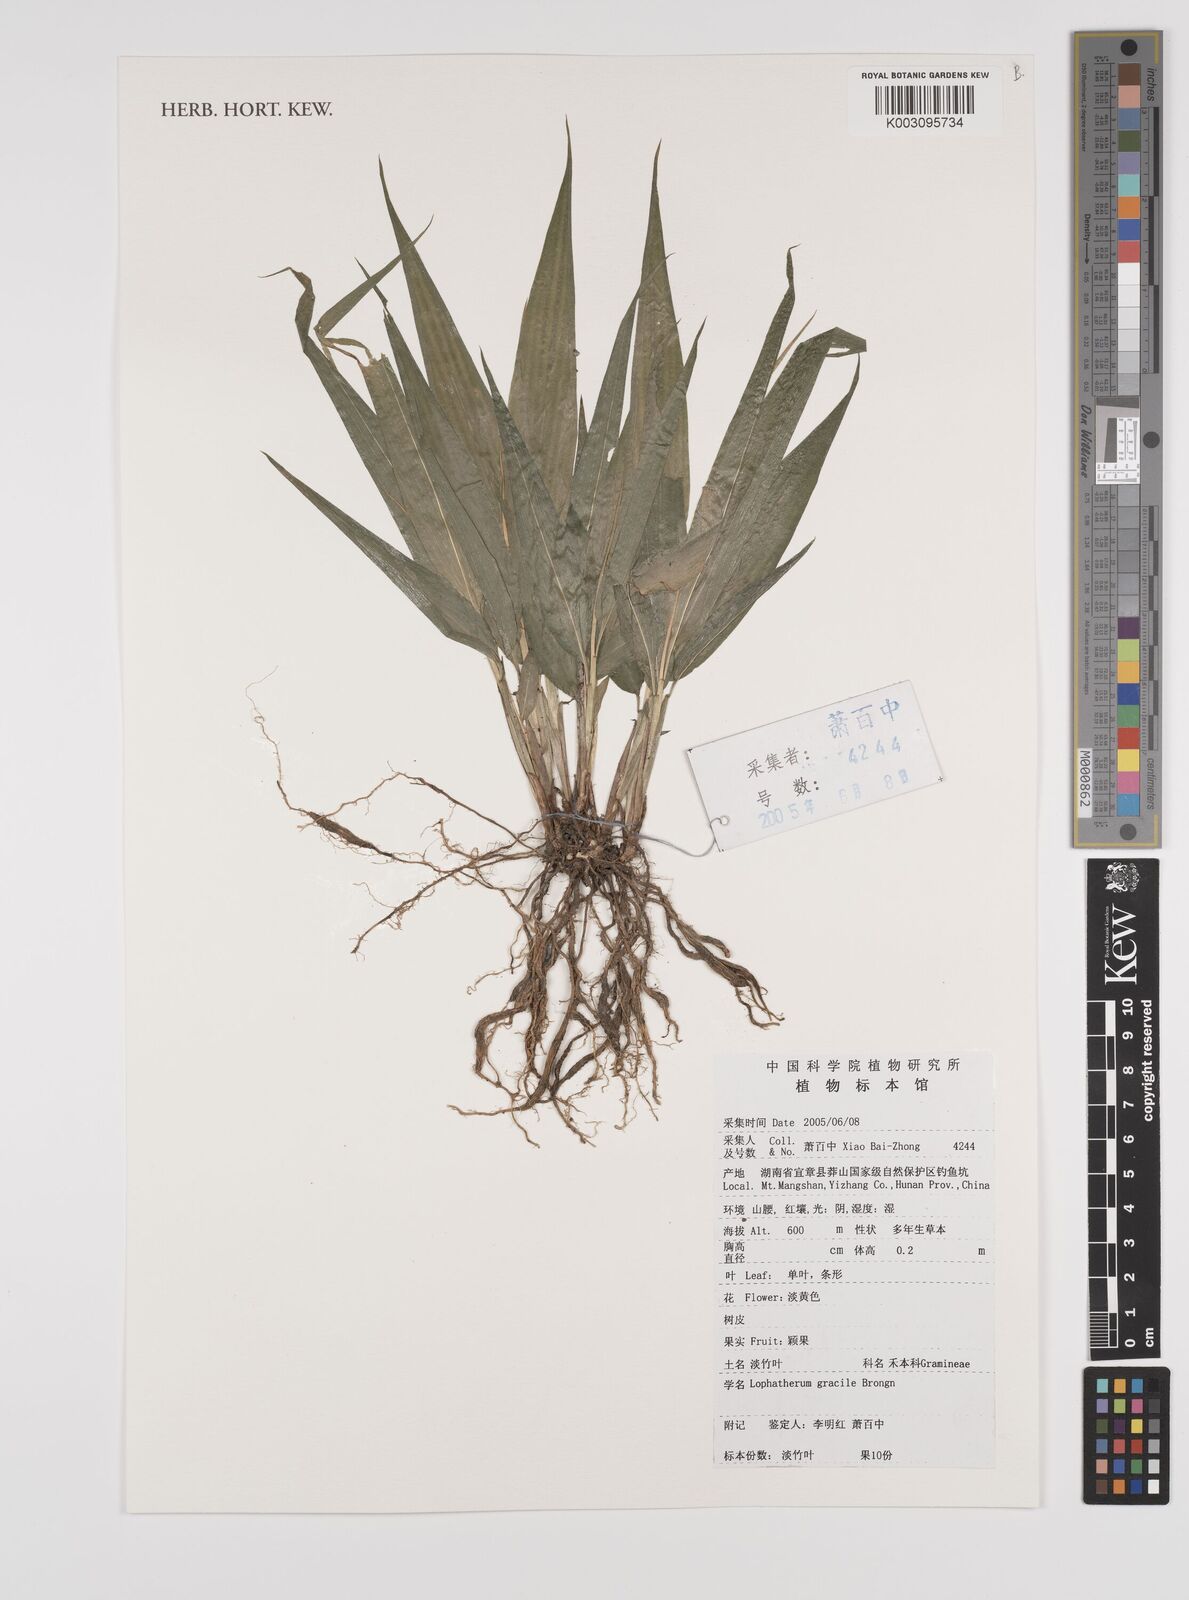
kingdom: Plantae
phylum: Tracheophyta
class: Liliopsida
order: Poales
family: Poaceae
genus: Lophatherum
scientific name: Lophatherum gracile
